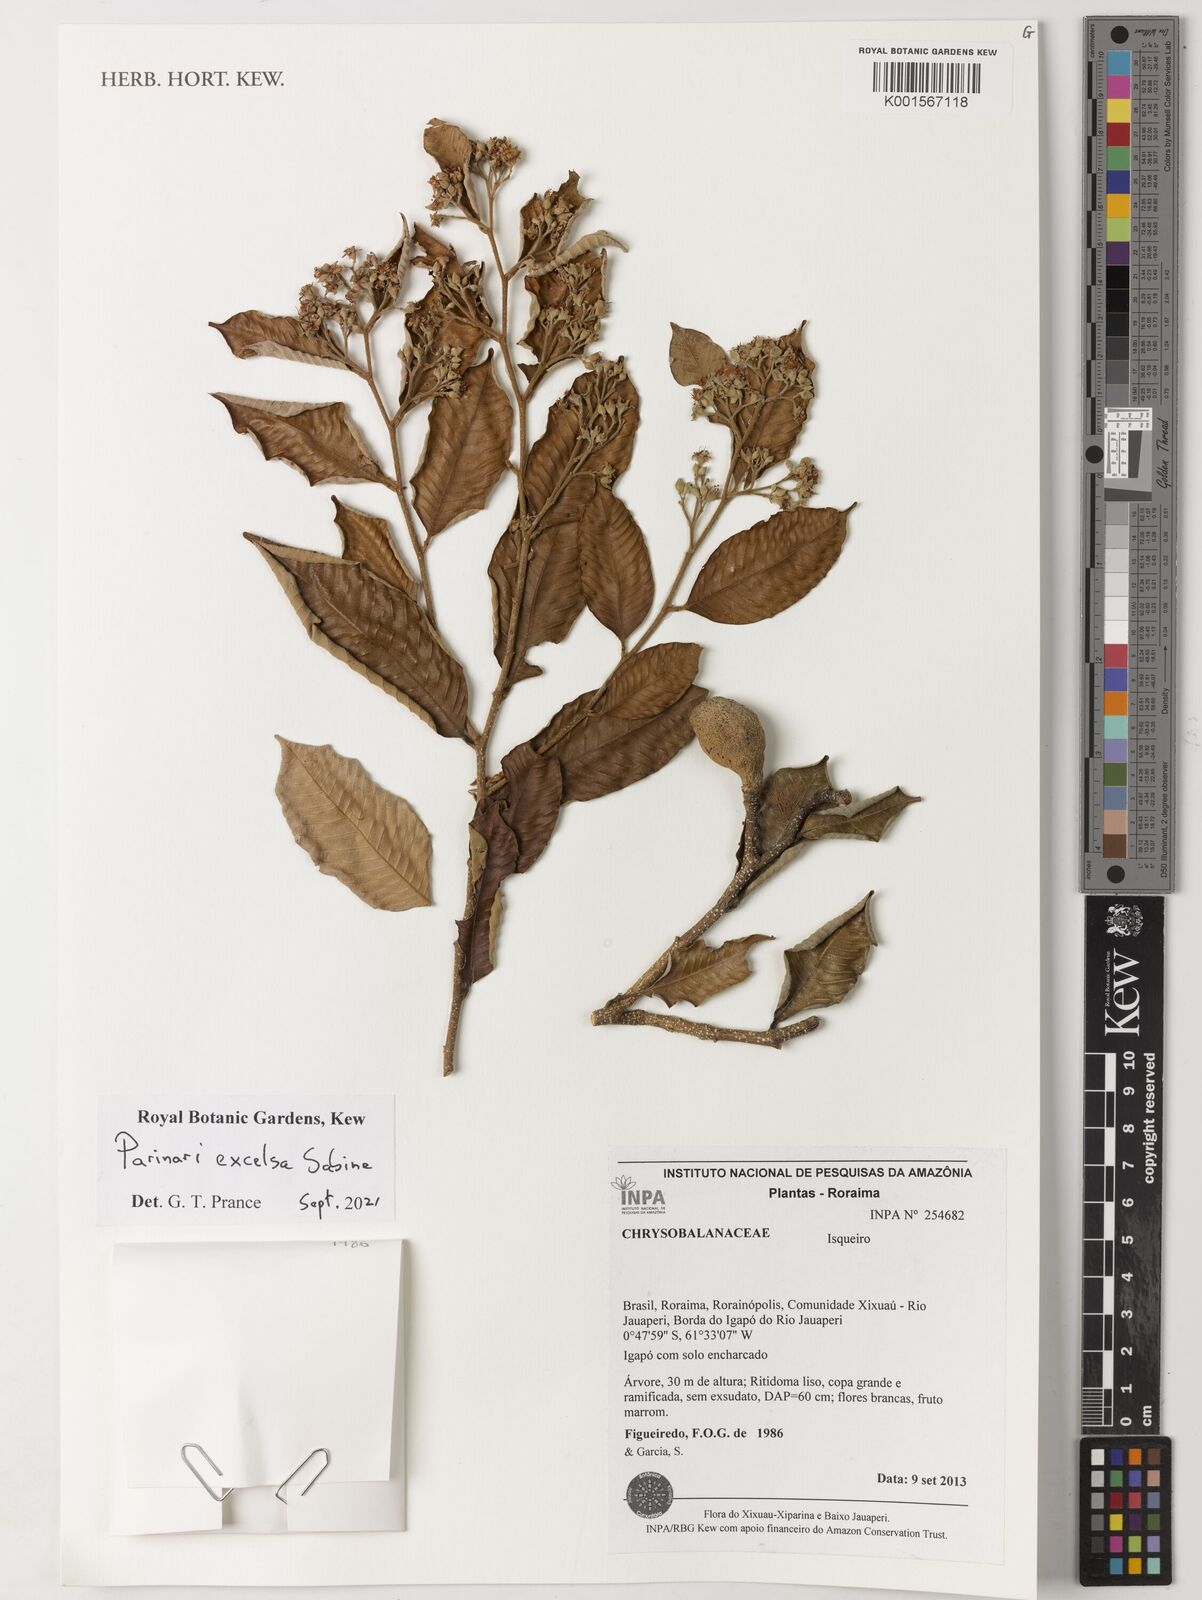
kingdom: Plantae
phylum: Tracheophyta
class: Magnoliopsida
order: Malpighiales
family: Chrysobalanaceae
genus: Parinari
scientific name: Parinari excelsa
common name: Guinea-plum
